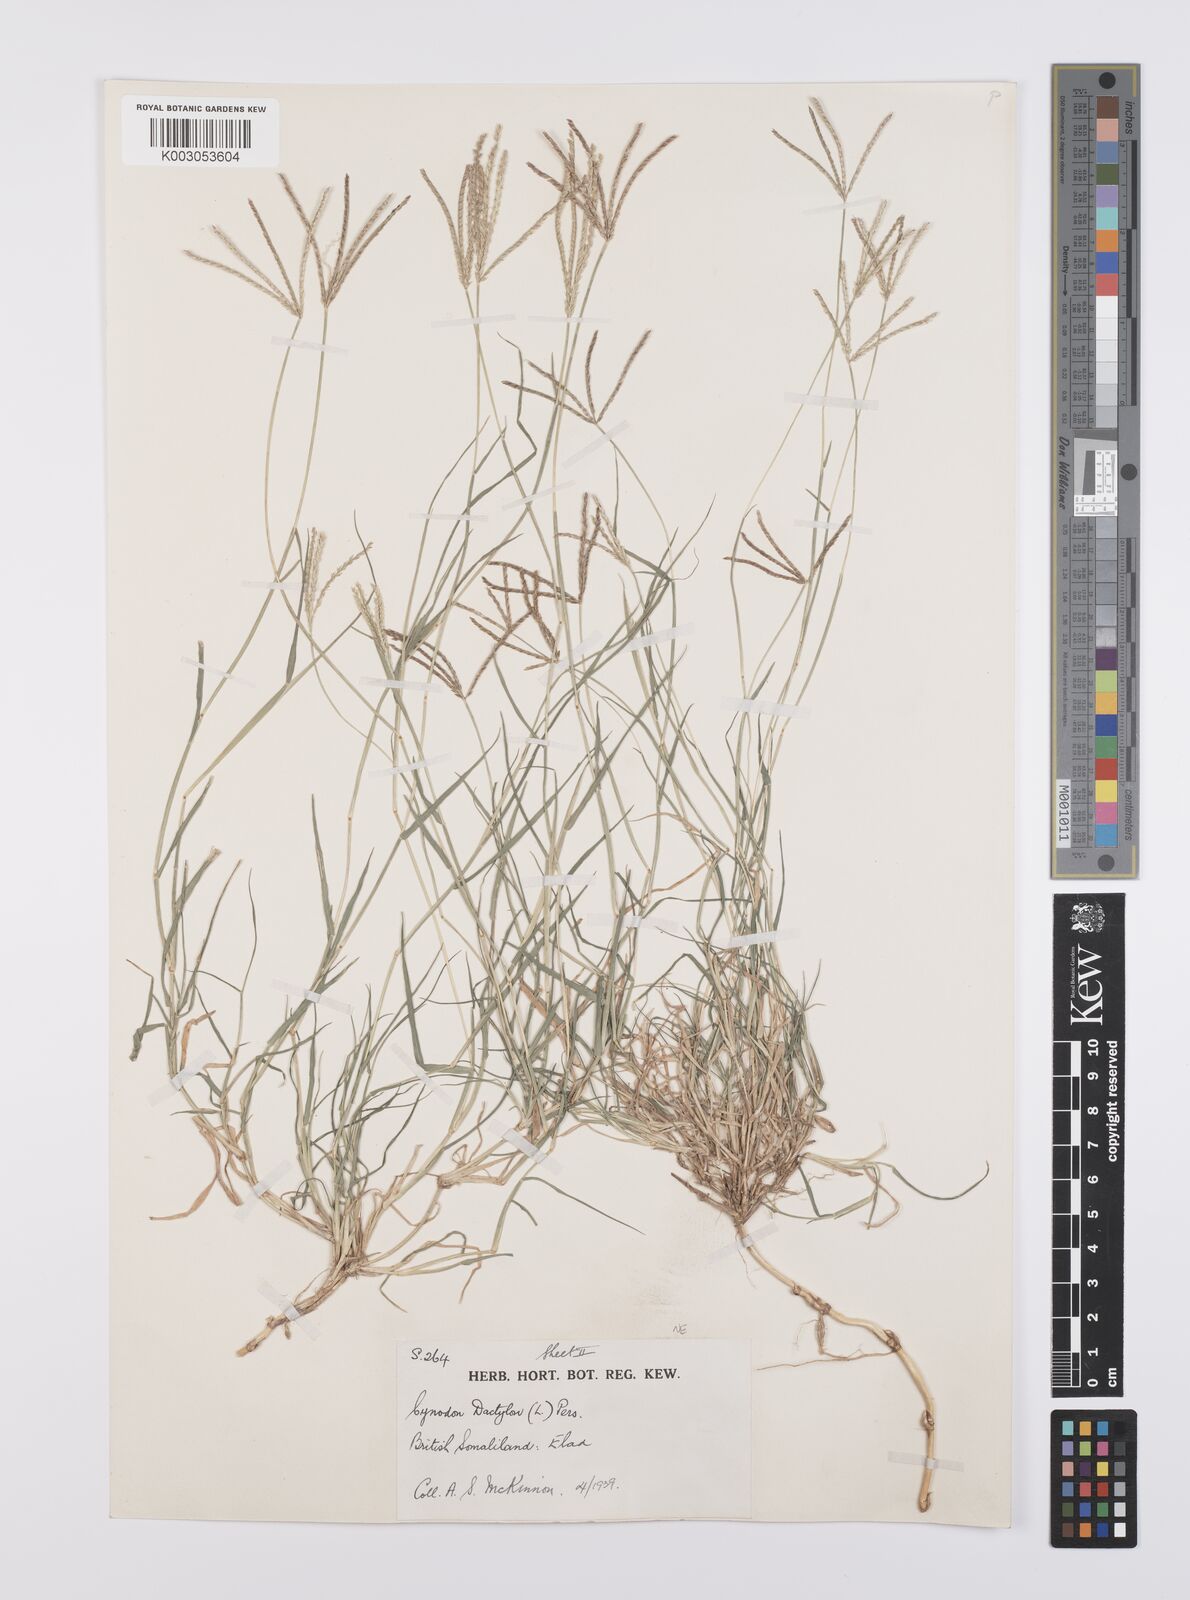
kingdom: Plantae
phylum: Tracheophyta
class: Liliopsida
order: Poales
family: Poaceae
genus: Cynodon
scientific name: Cynodon dactylon
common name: Bermuda grass
